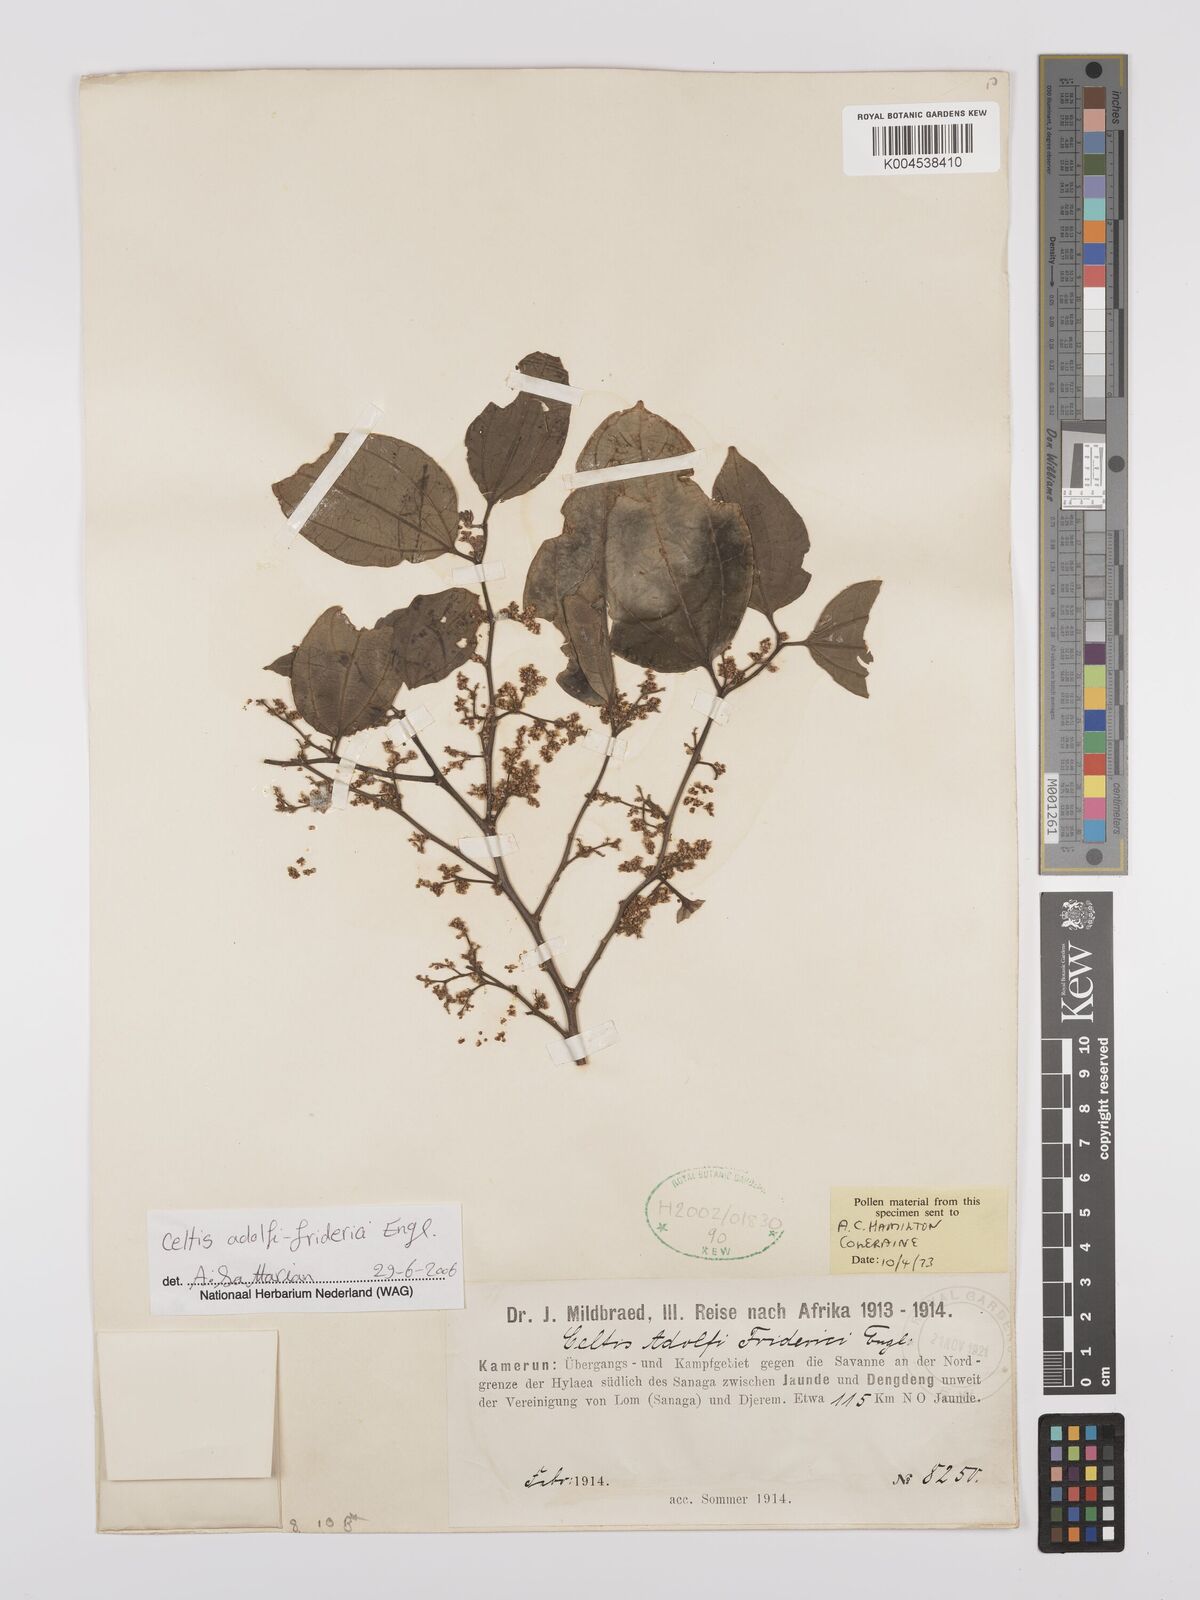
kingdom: Plantae
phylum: Tracheophyta
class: Magnoliopsida
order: Rosales
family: Cannabaceae
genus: Celtis
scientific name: Celtis adolfi-friderici
